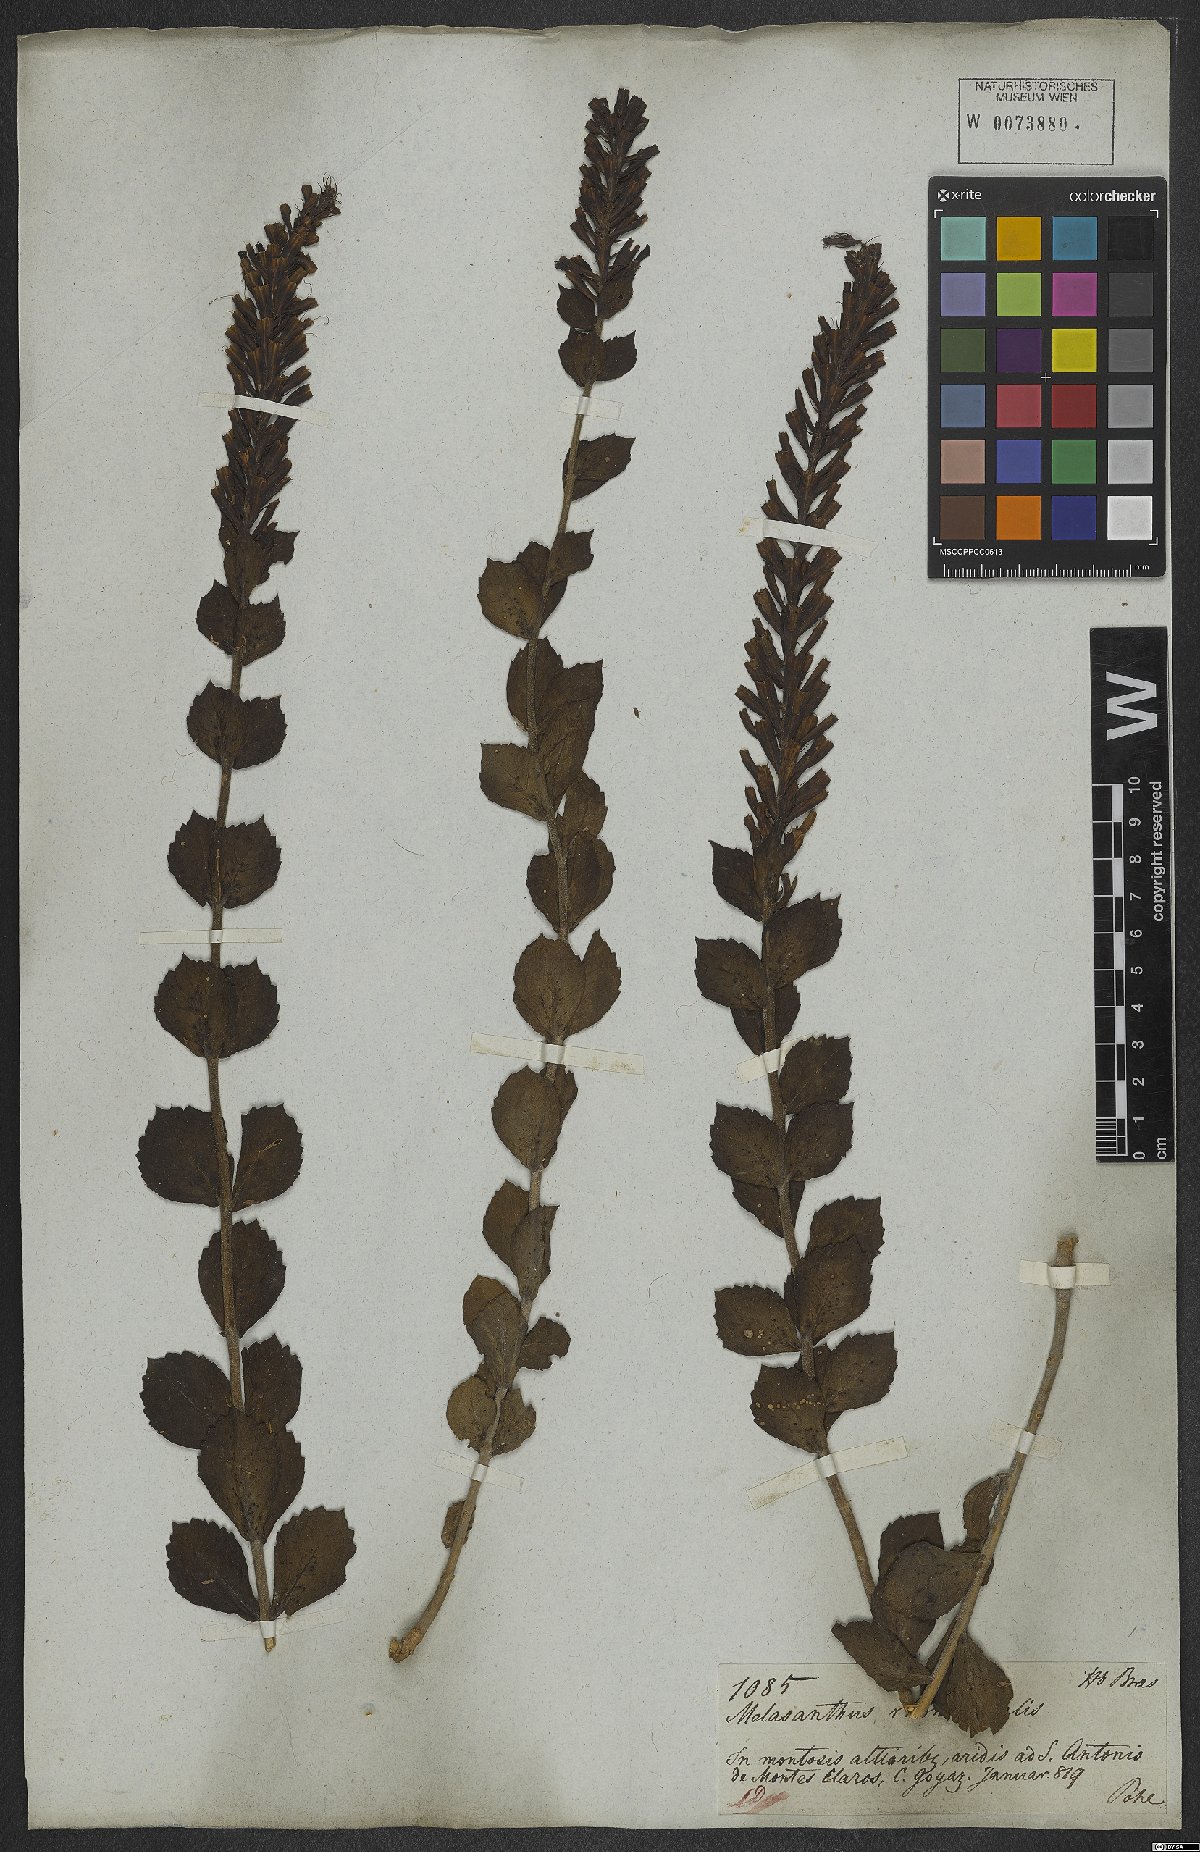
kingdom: Plantae
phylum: Tracheophyta
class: Magnoliopsida
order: Lamiales
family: Verbenaceae
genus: Stachytarpheta
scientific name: Stachytarpheta rhomboidalis
